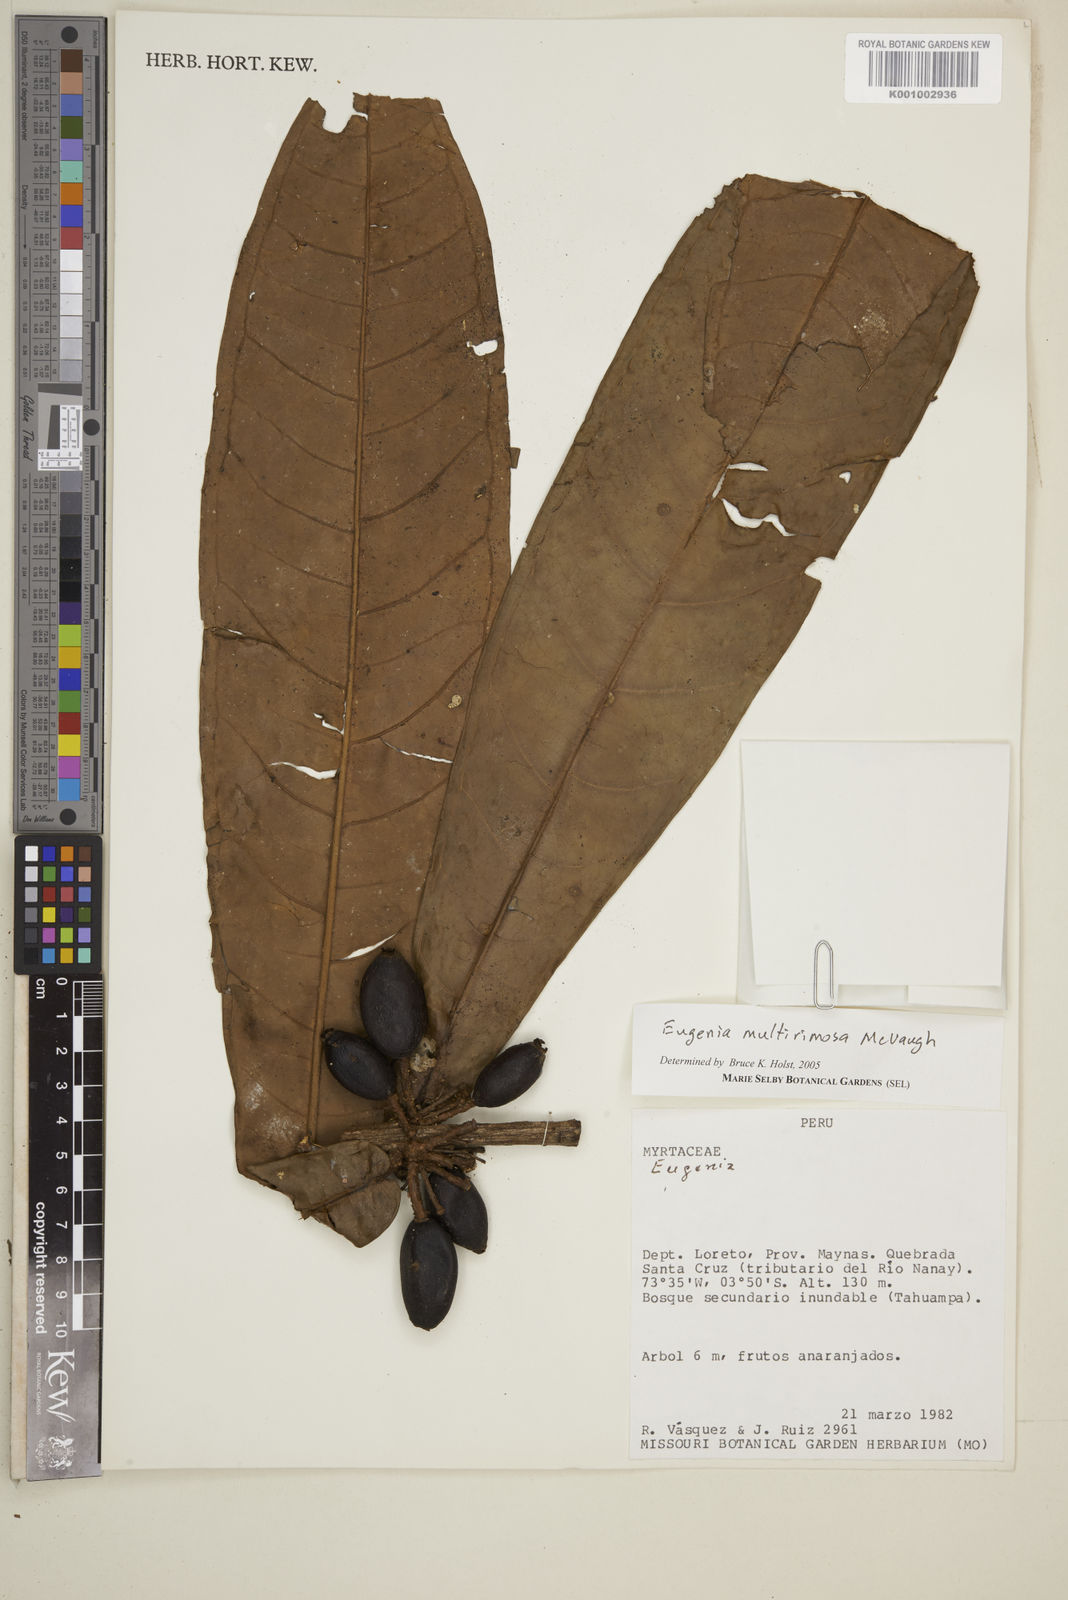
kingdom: Plantae
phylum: Tracheophyta
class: Magnoliopsida
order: Myrtales
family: Myrtaceae
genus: Eugenia
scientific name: Eugenia multirimosa
